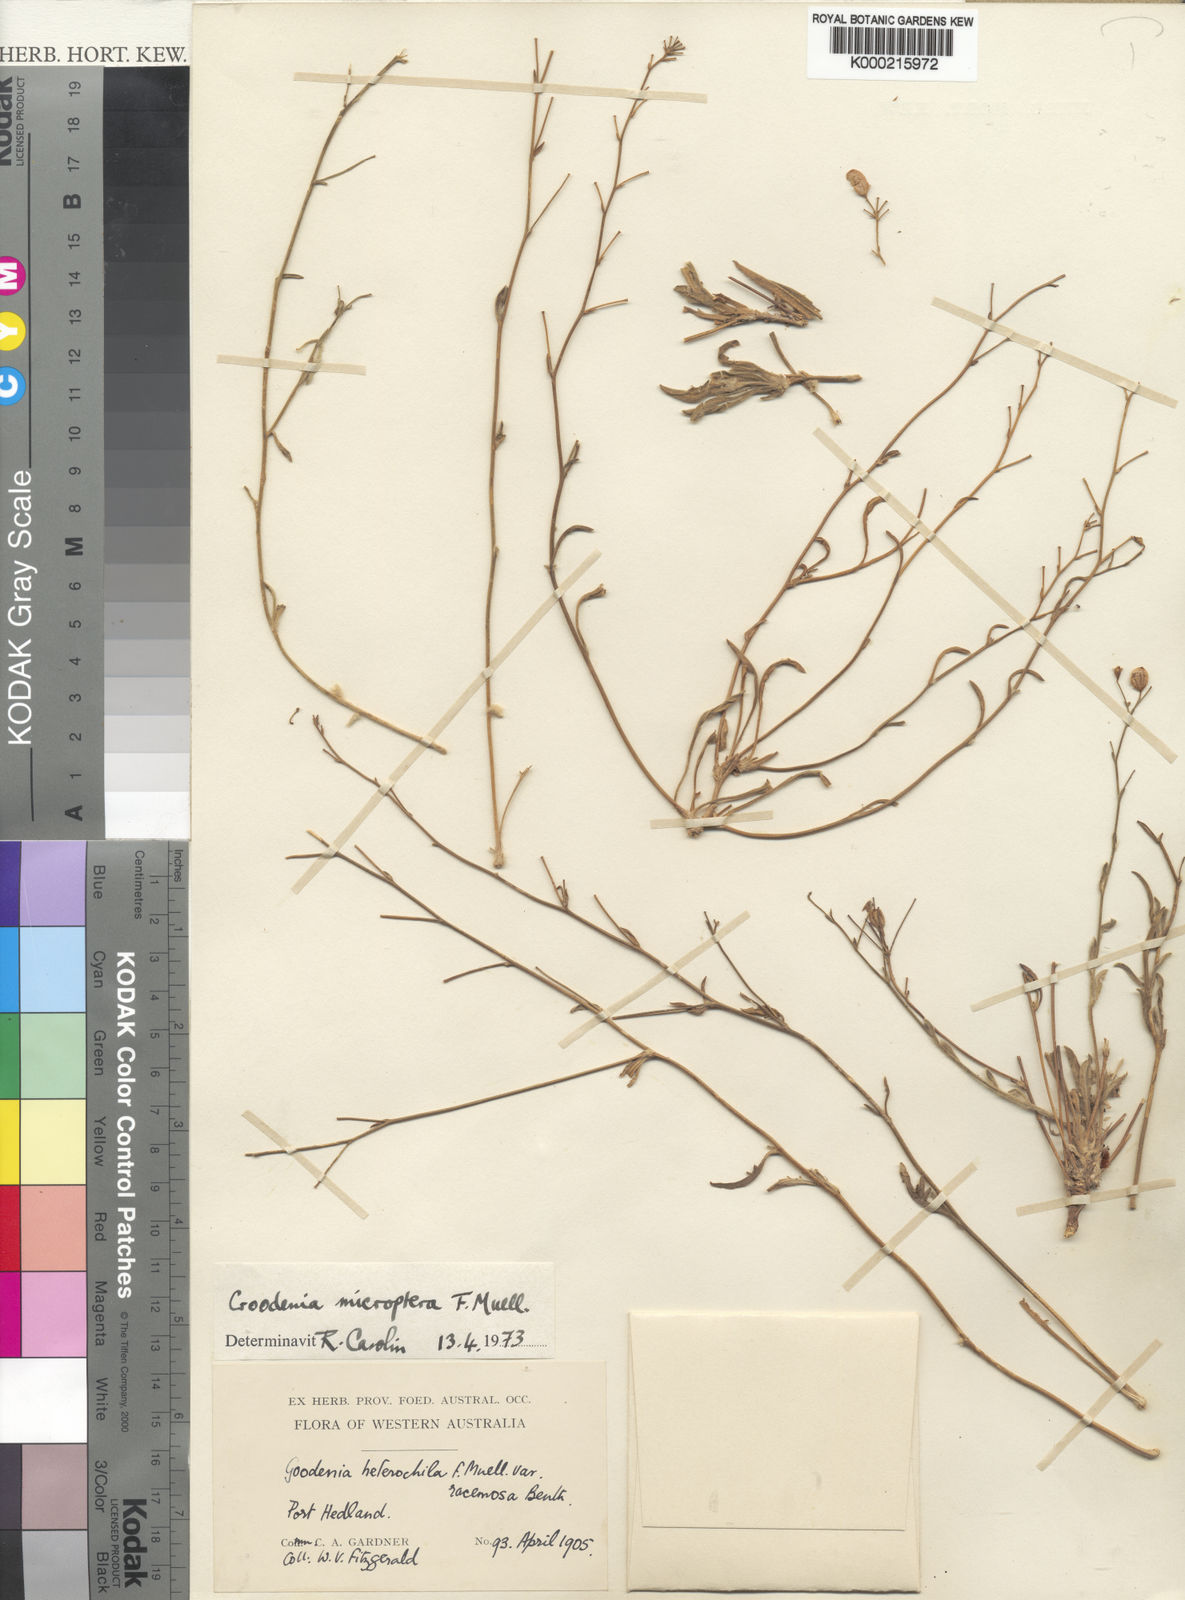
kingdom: Plantae
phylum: Tracheophyta
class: Magnoliopsida
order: Asterales
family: Goodeniaceae
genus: Goodenia
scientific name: Goodenia microptera
